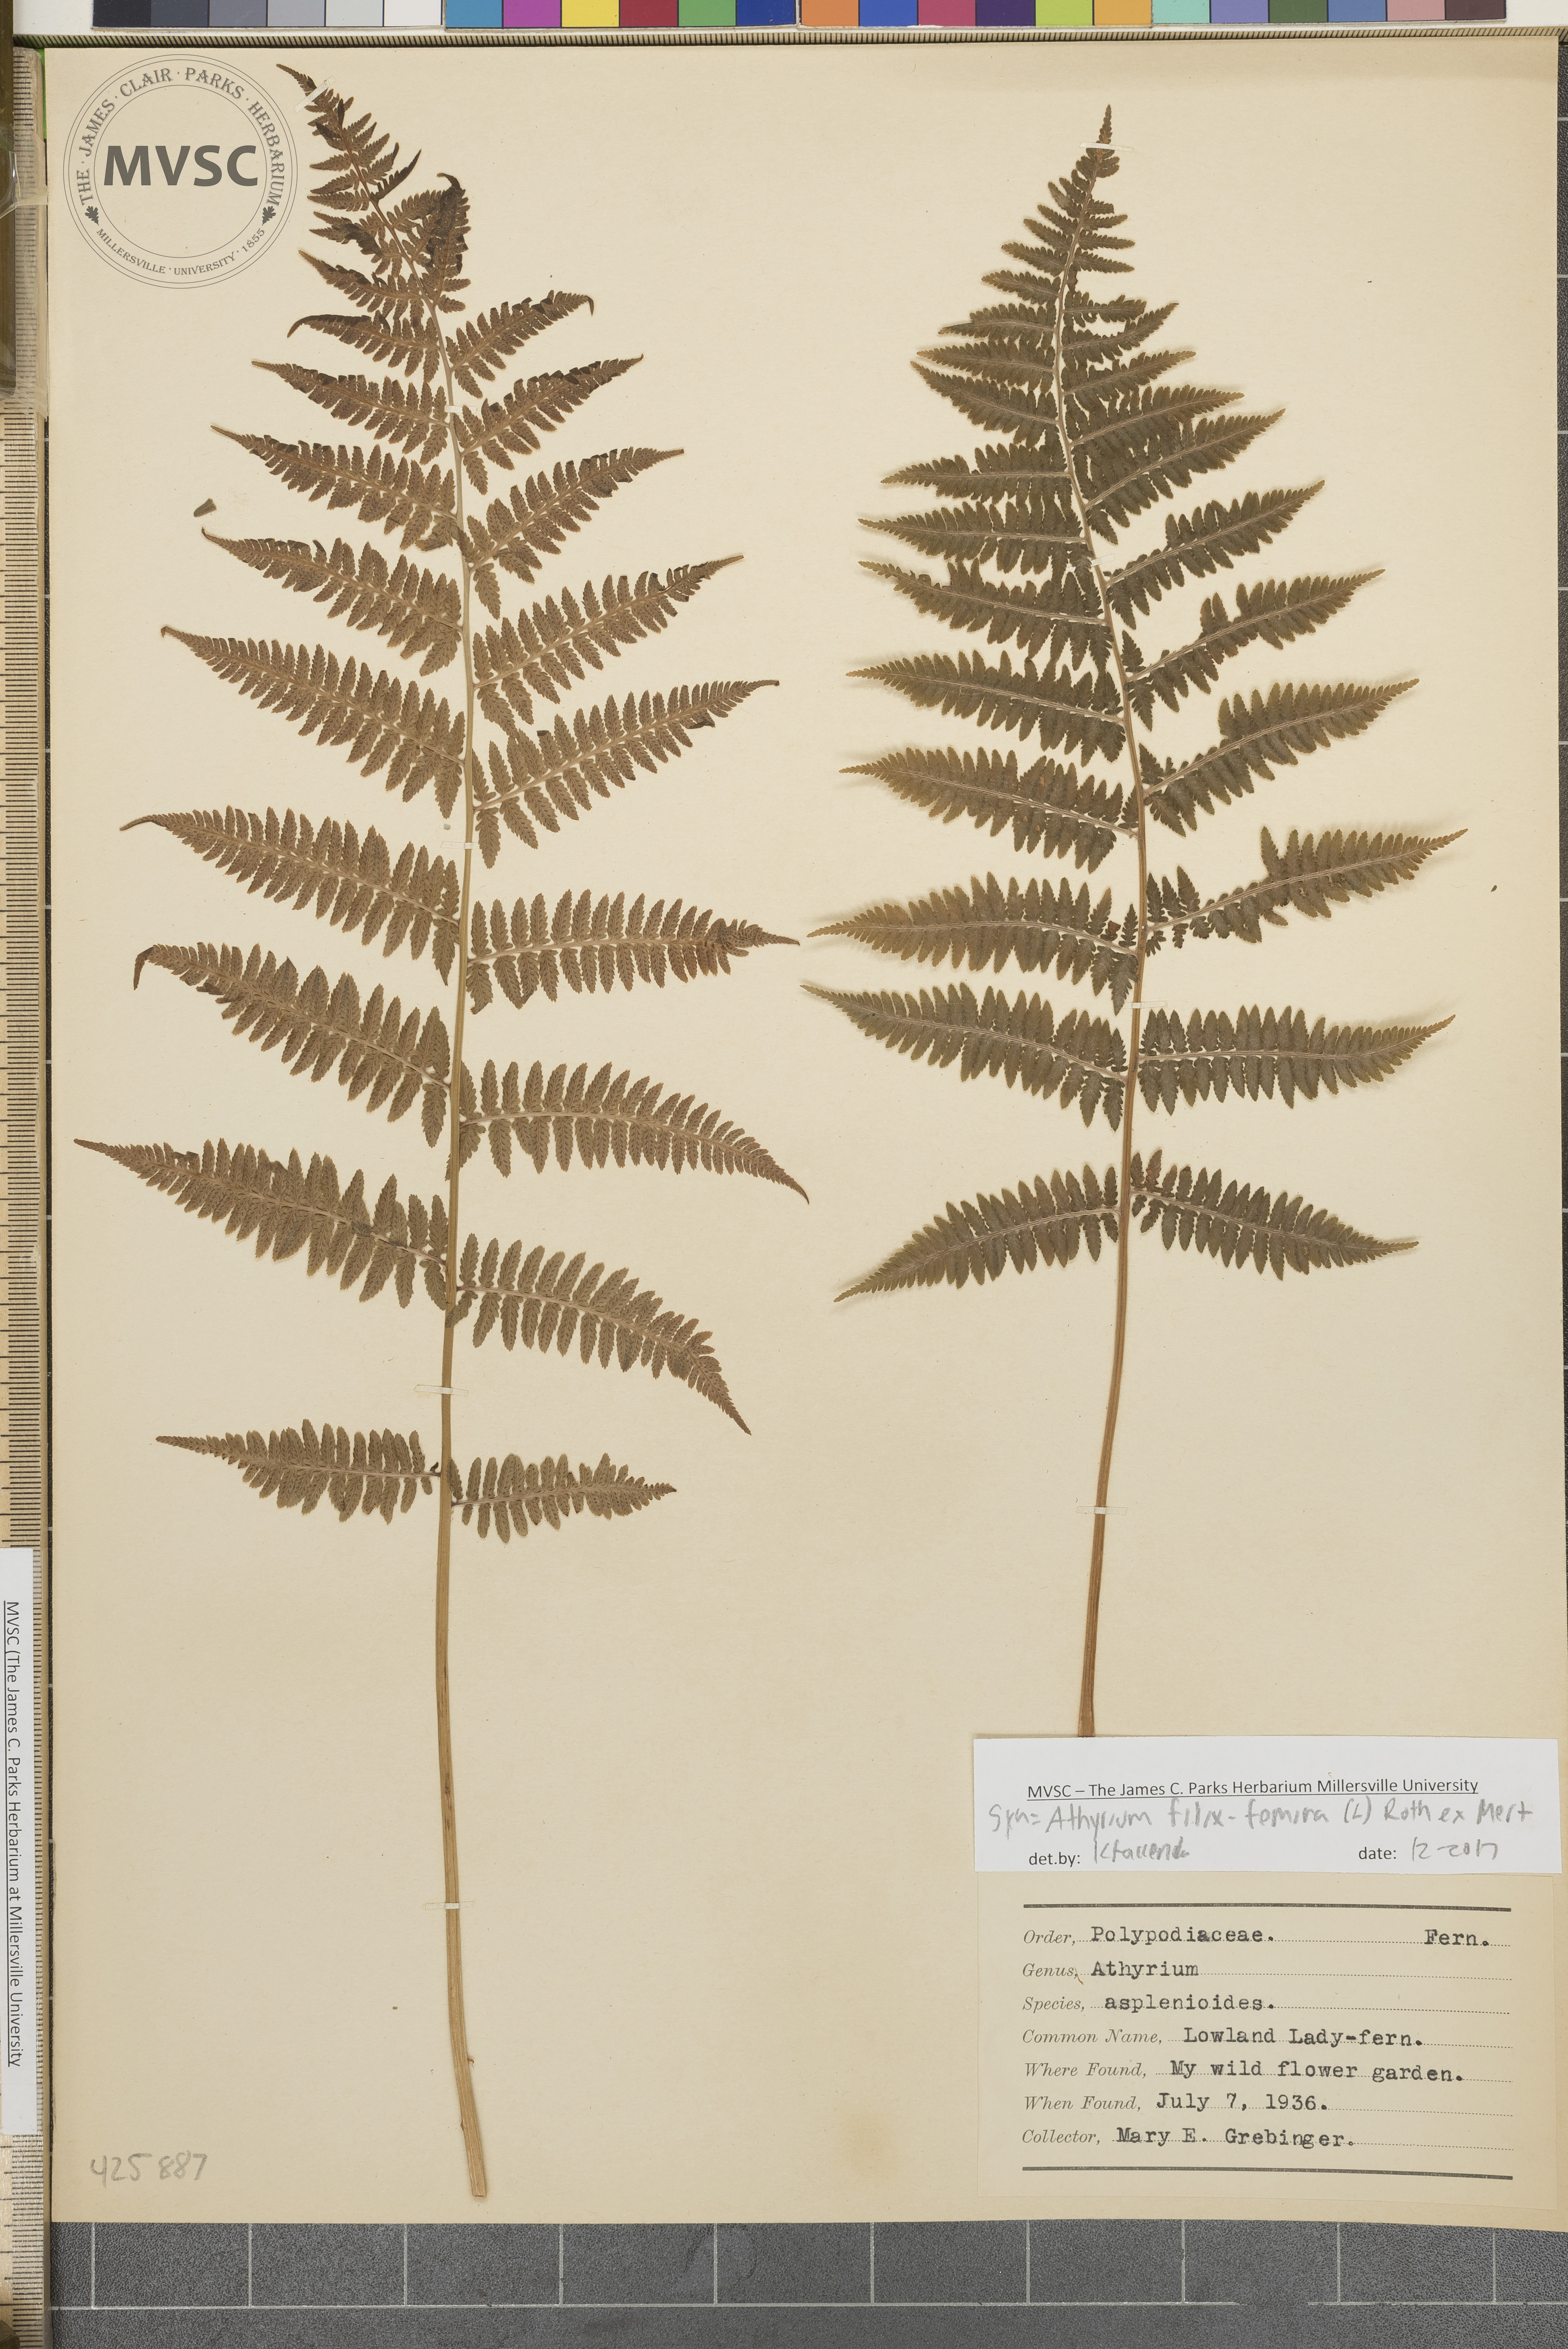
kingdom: Plantae
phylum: Tracheophyta
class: Polypodiopsida
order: Polypodiales
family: Athyriaceae
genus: Athyrium
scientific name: Athyrium filix-femina
